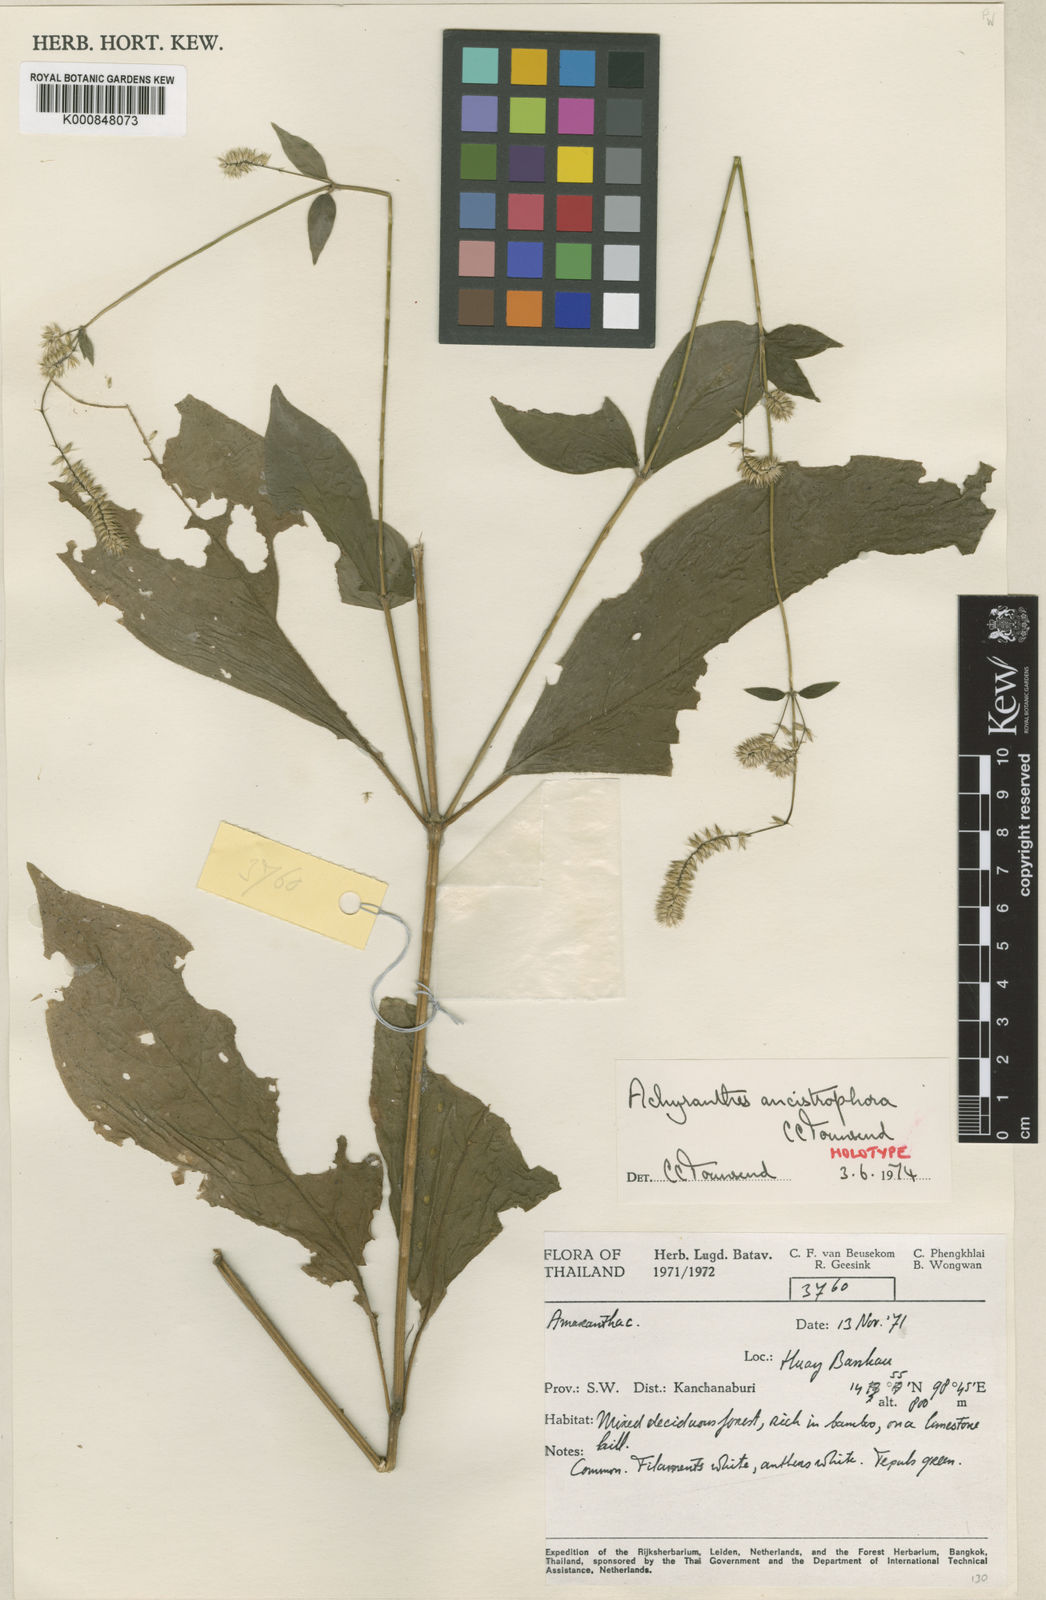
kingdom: Plantae
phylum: Tracheophyta
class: Magnoliopsida
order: Caryophyllales
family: Amaranthaceae
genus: Achyranthes
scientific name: Achyranthes ancistrophora
